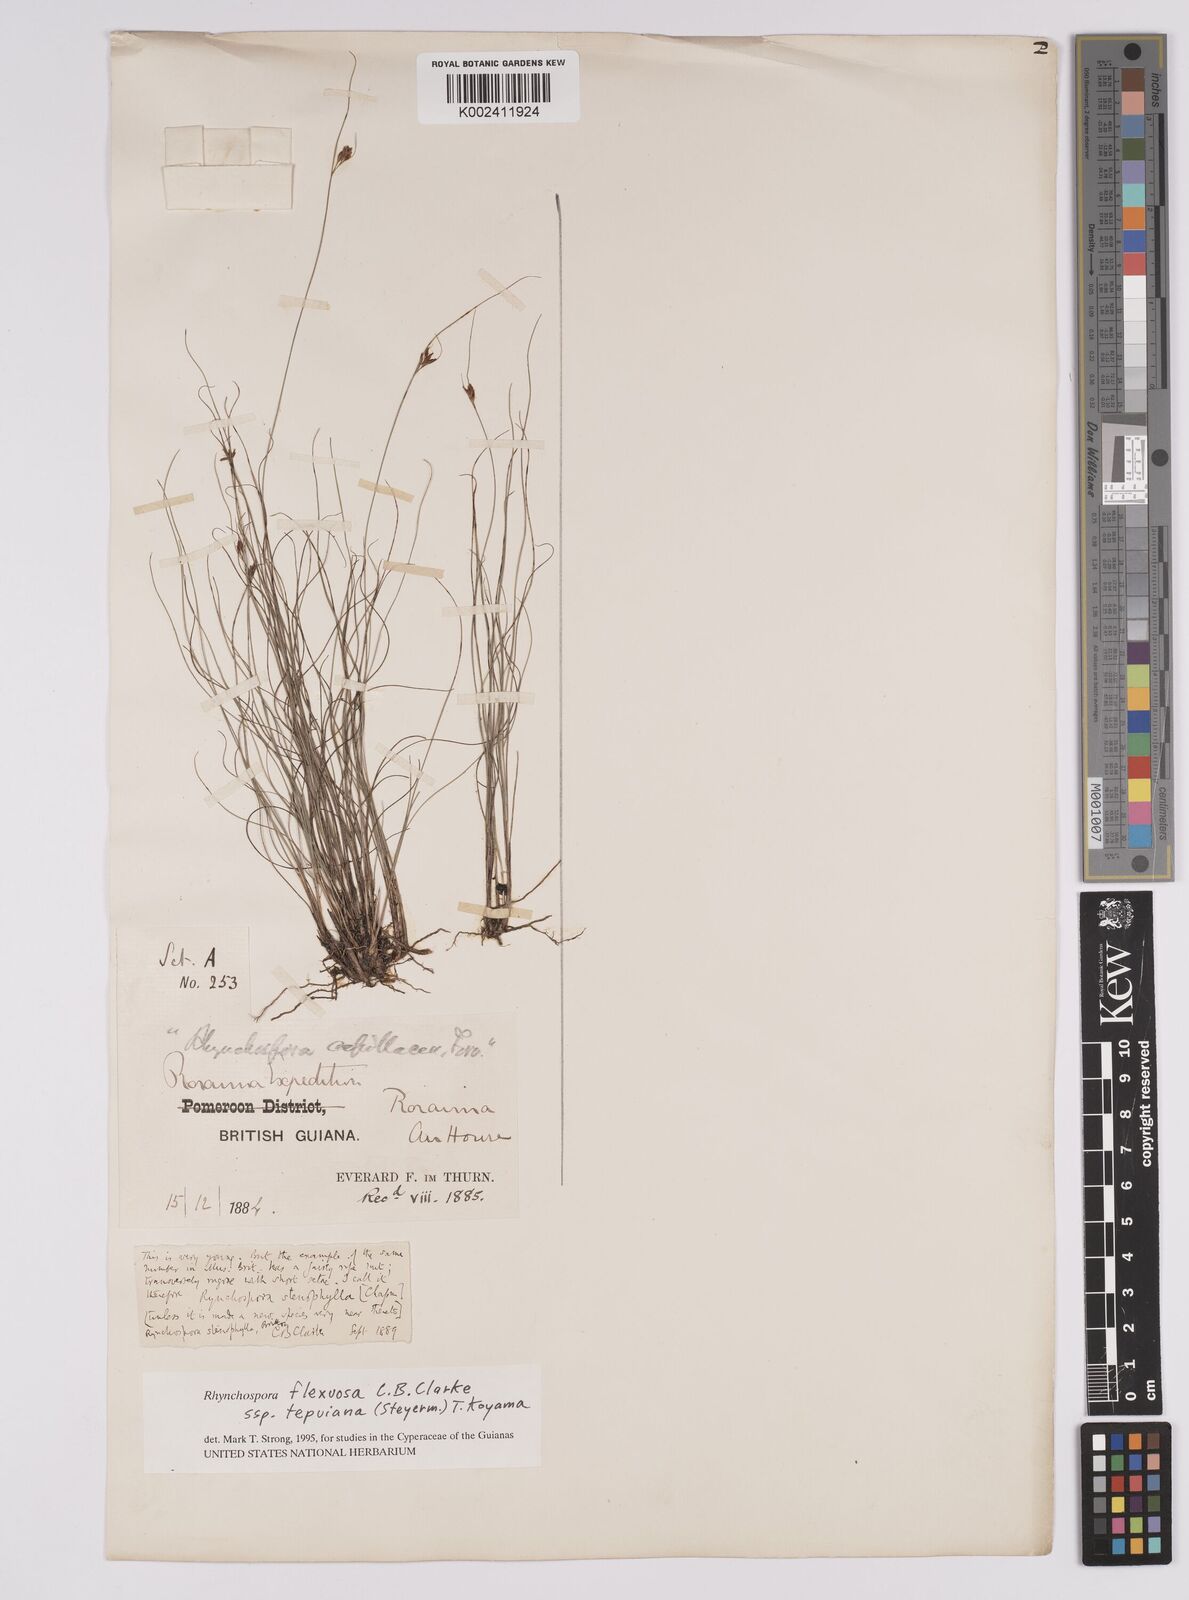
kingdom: Plantae
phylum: Tracheophyta
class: Liliopsida
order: Poales
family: Cyperaceae
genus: Rhynchospora
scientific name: Rhynchospora stenophylla
